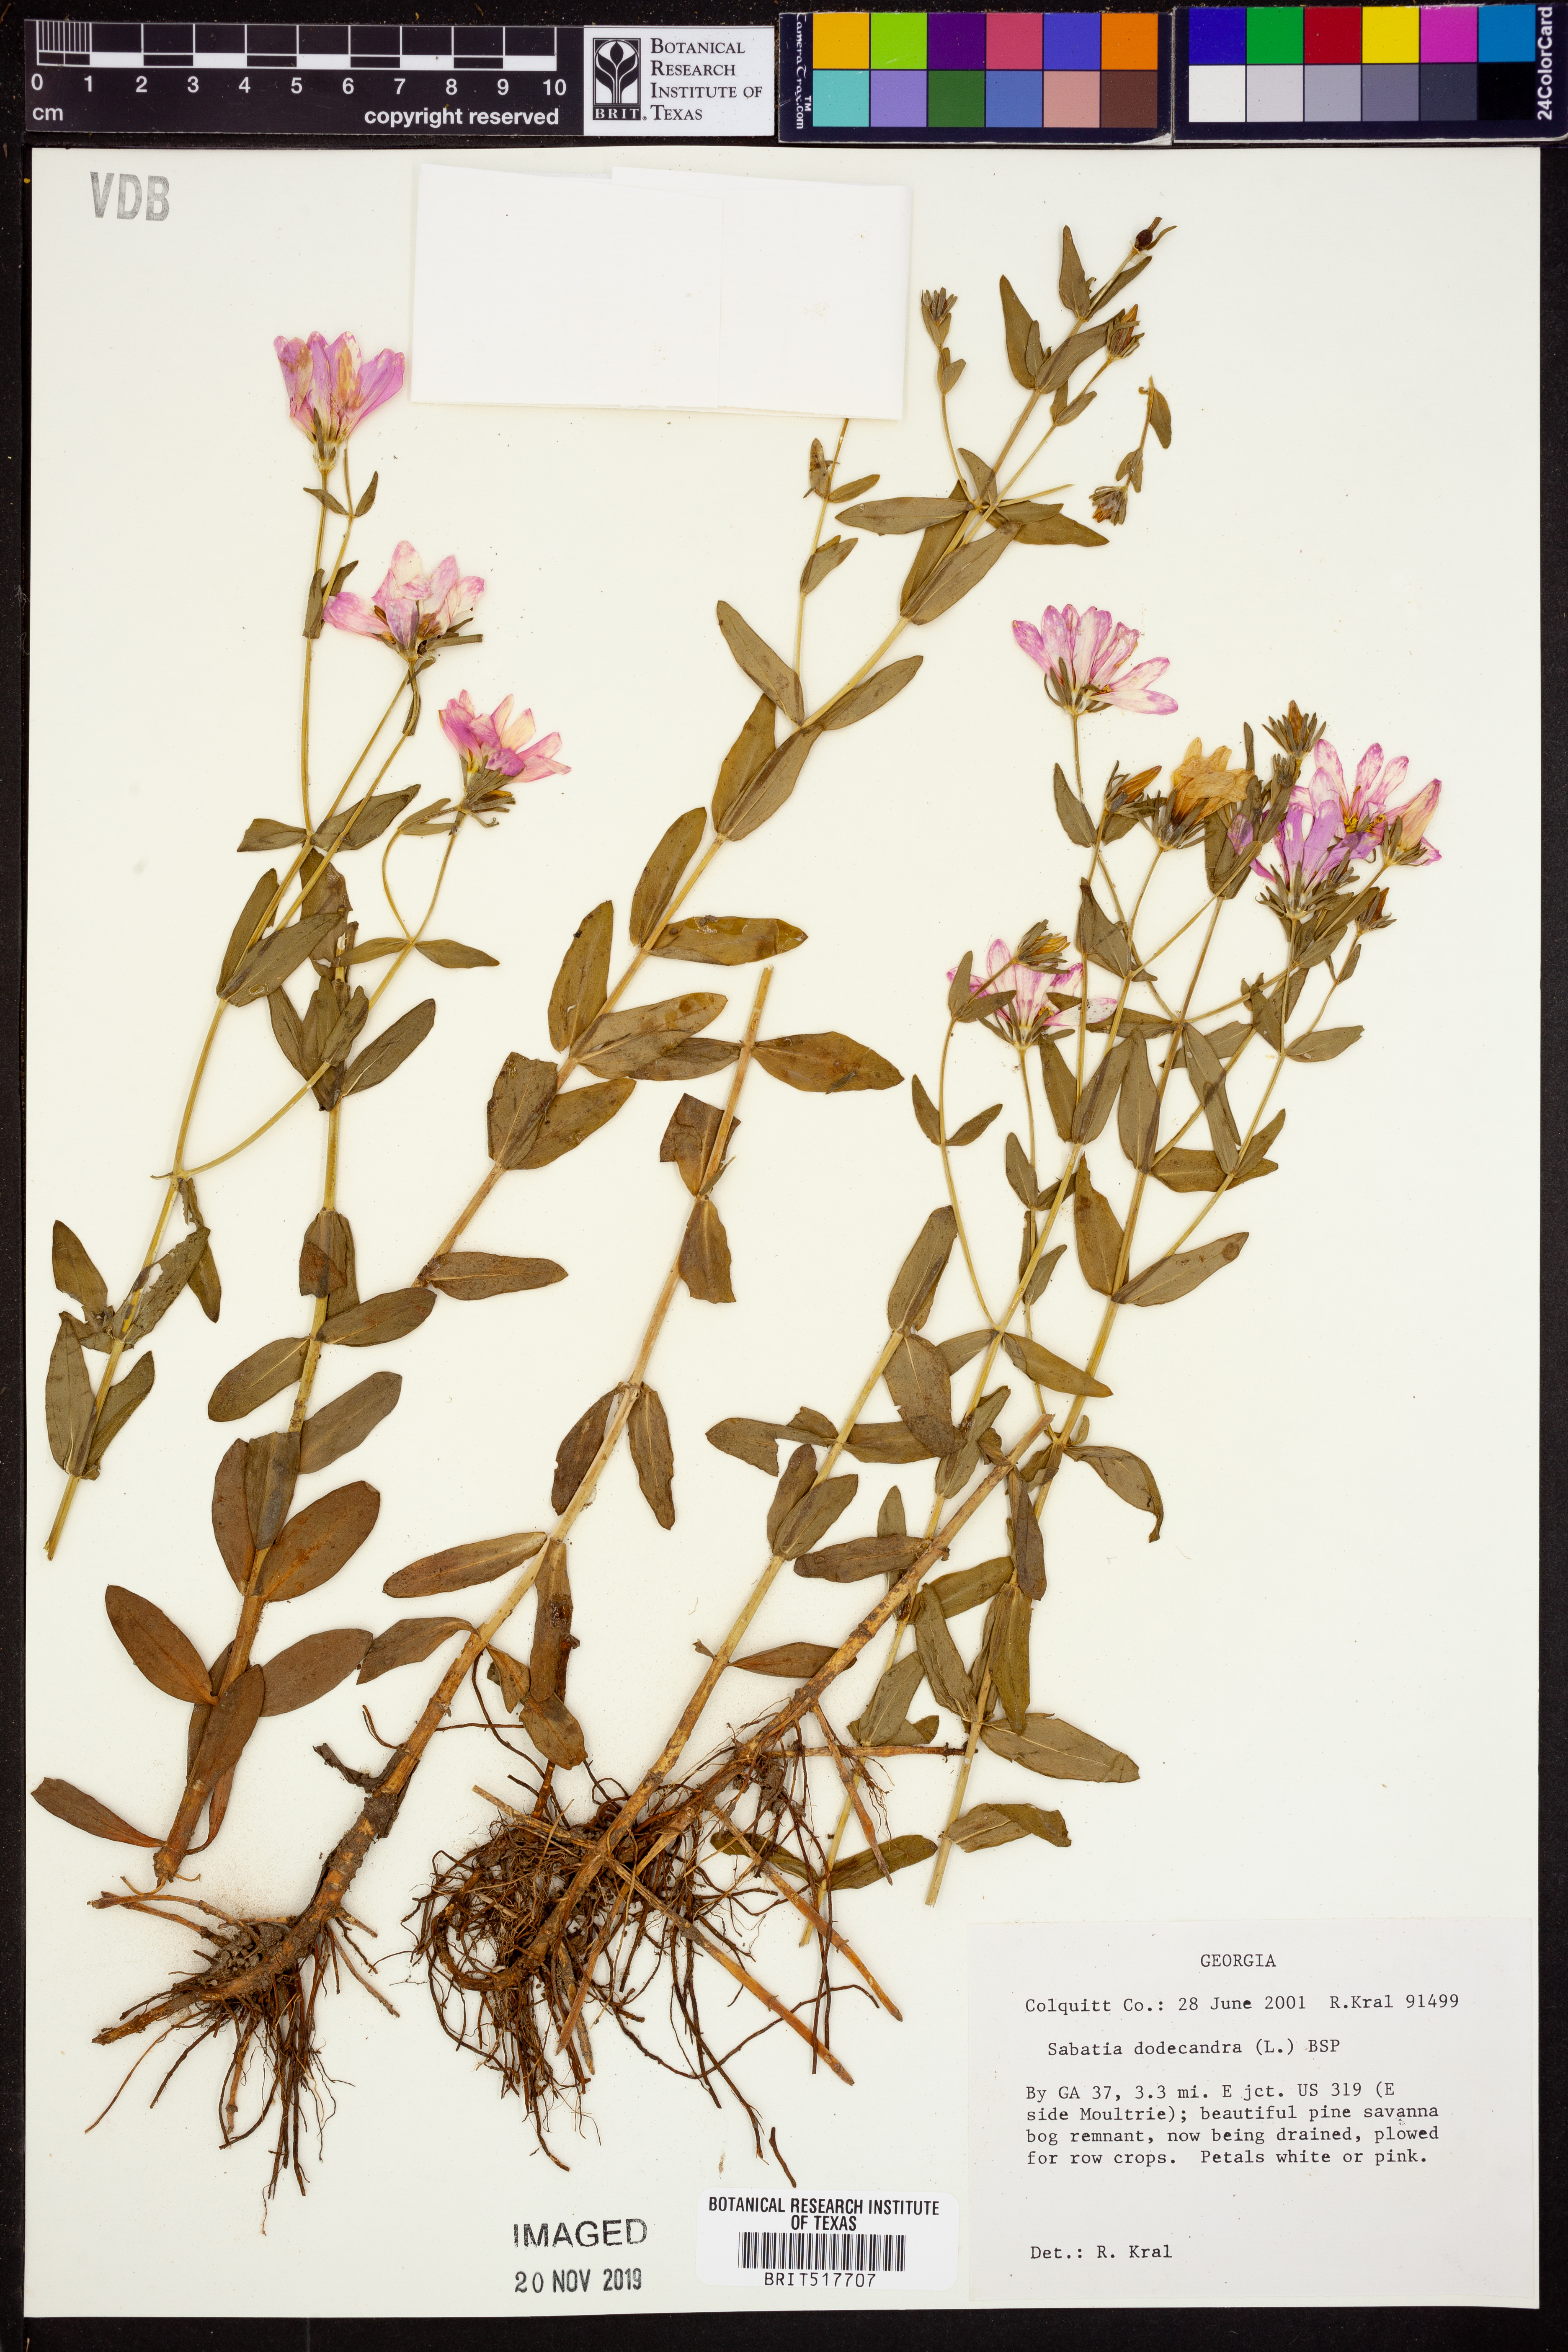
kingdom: Plantae
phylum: Tracheophyta
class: Magnoliopsida
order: Gentianales
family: Gentianaceae
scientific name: Gentianaceae
